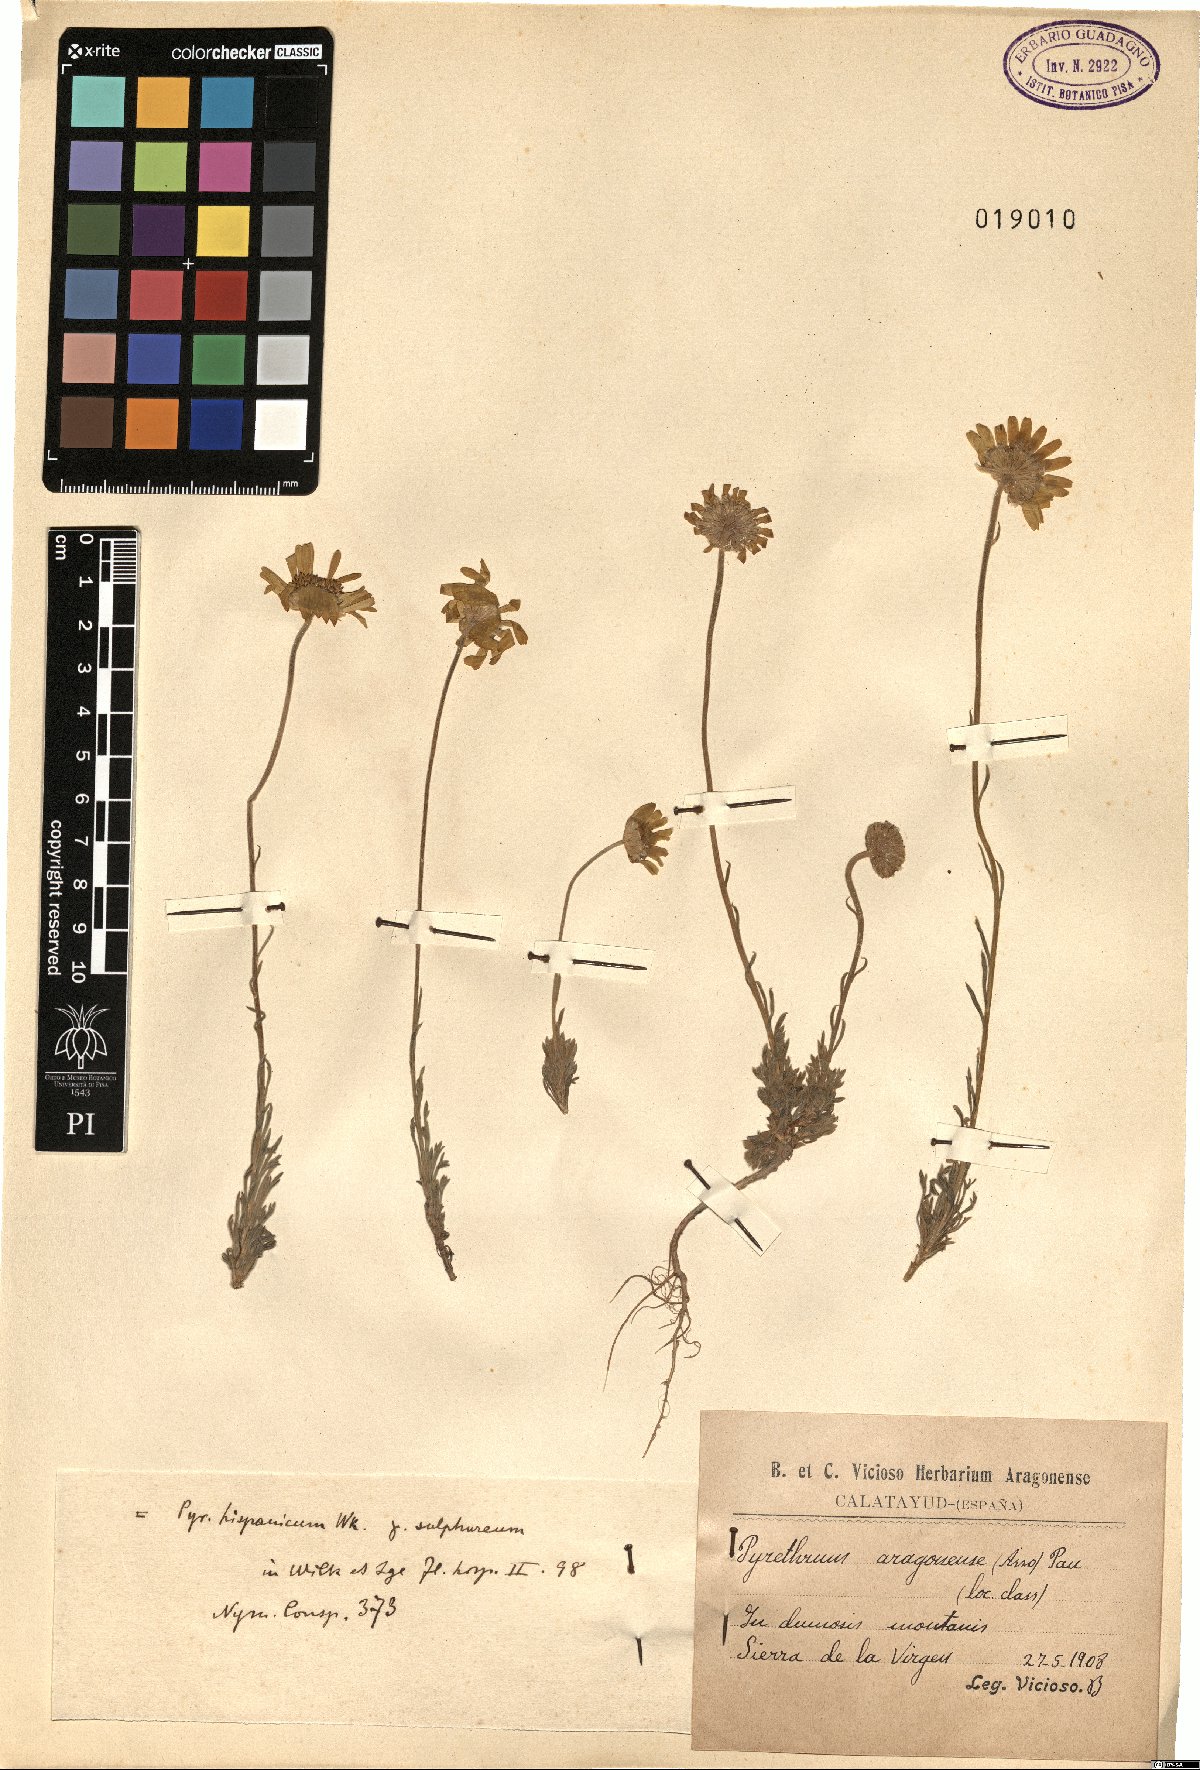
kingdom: Plantae
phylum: Tracheophyta
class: Magnoliopsida
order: Asterales
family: Asteraceae
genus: Leucanthemopsis
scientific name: Leucanthemopsis pallida
